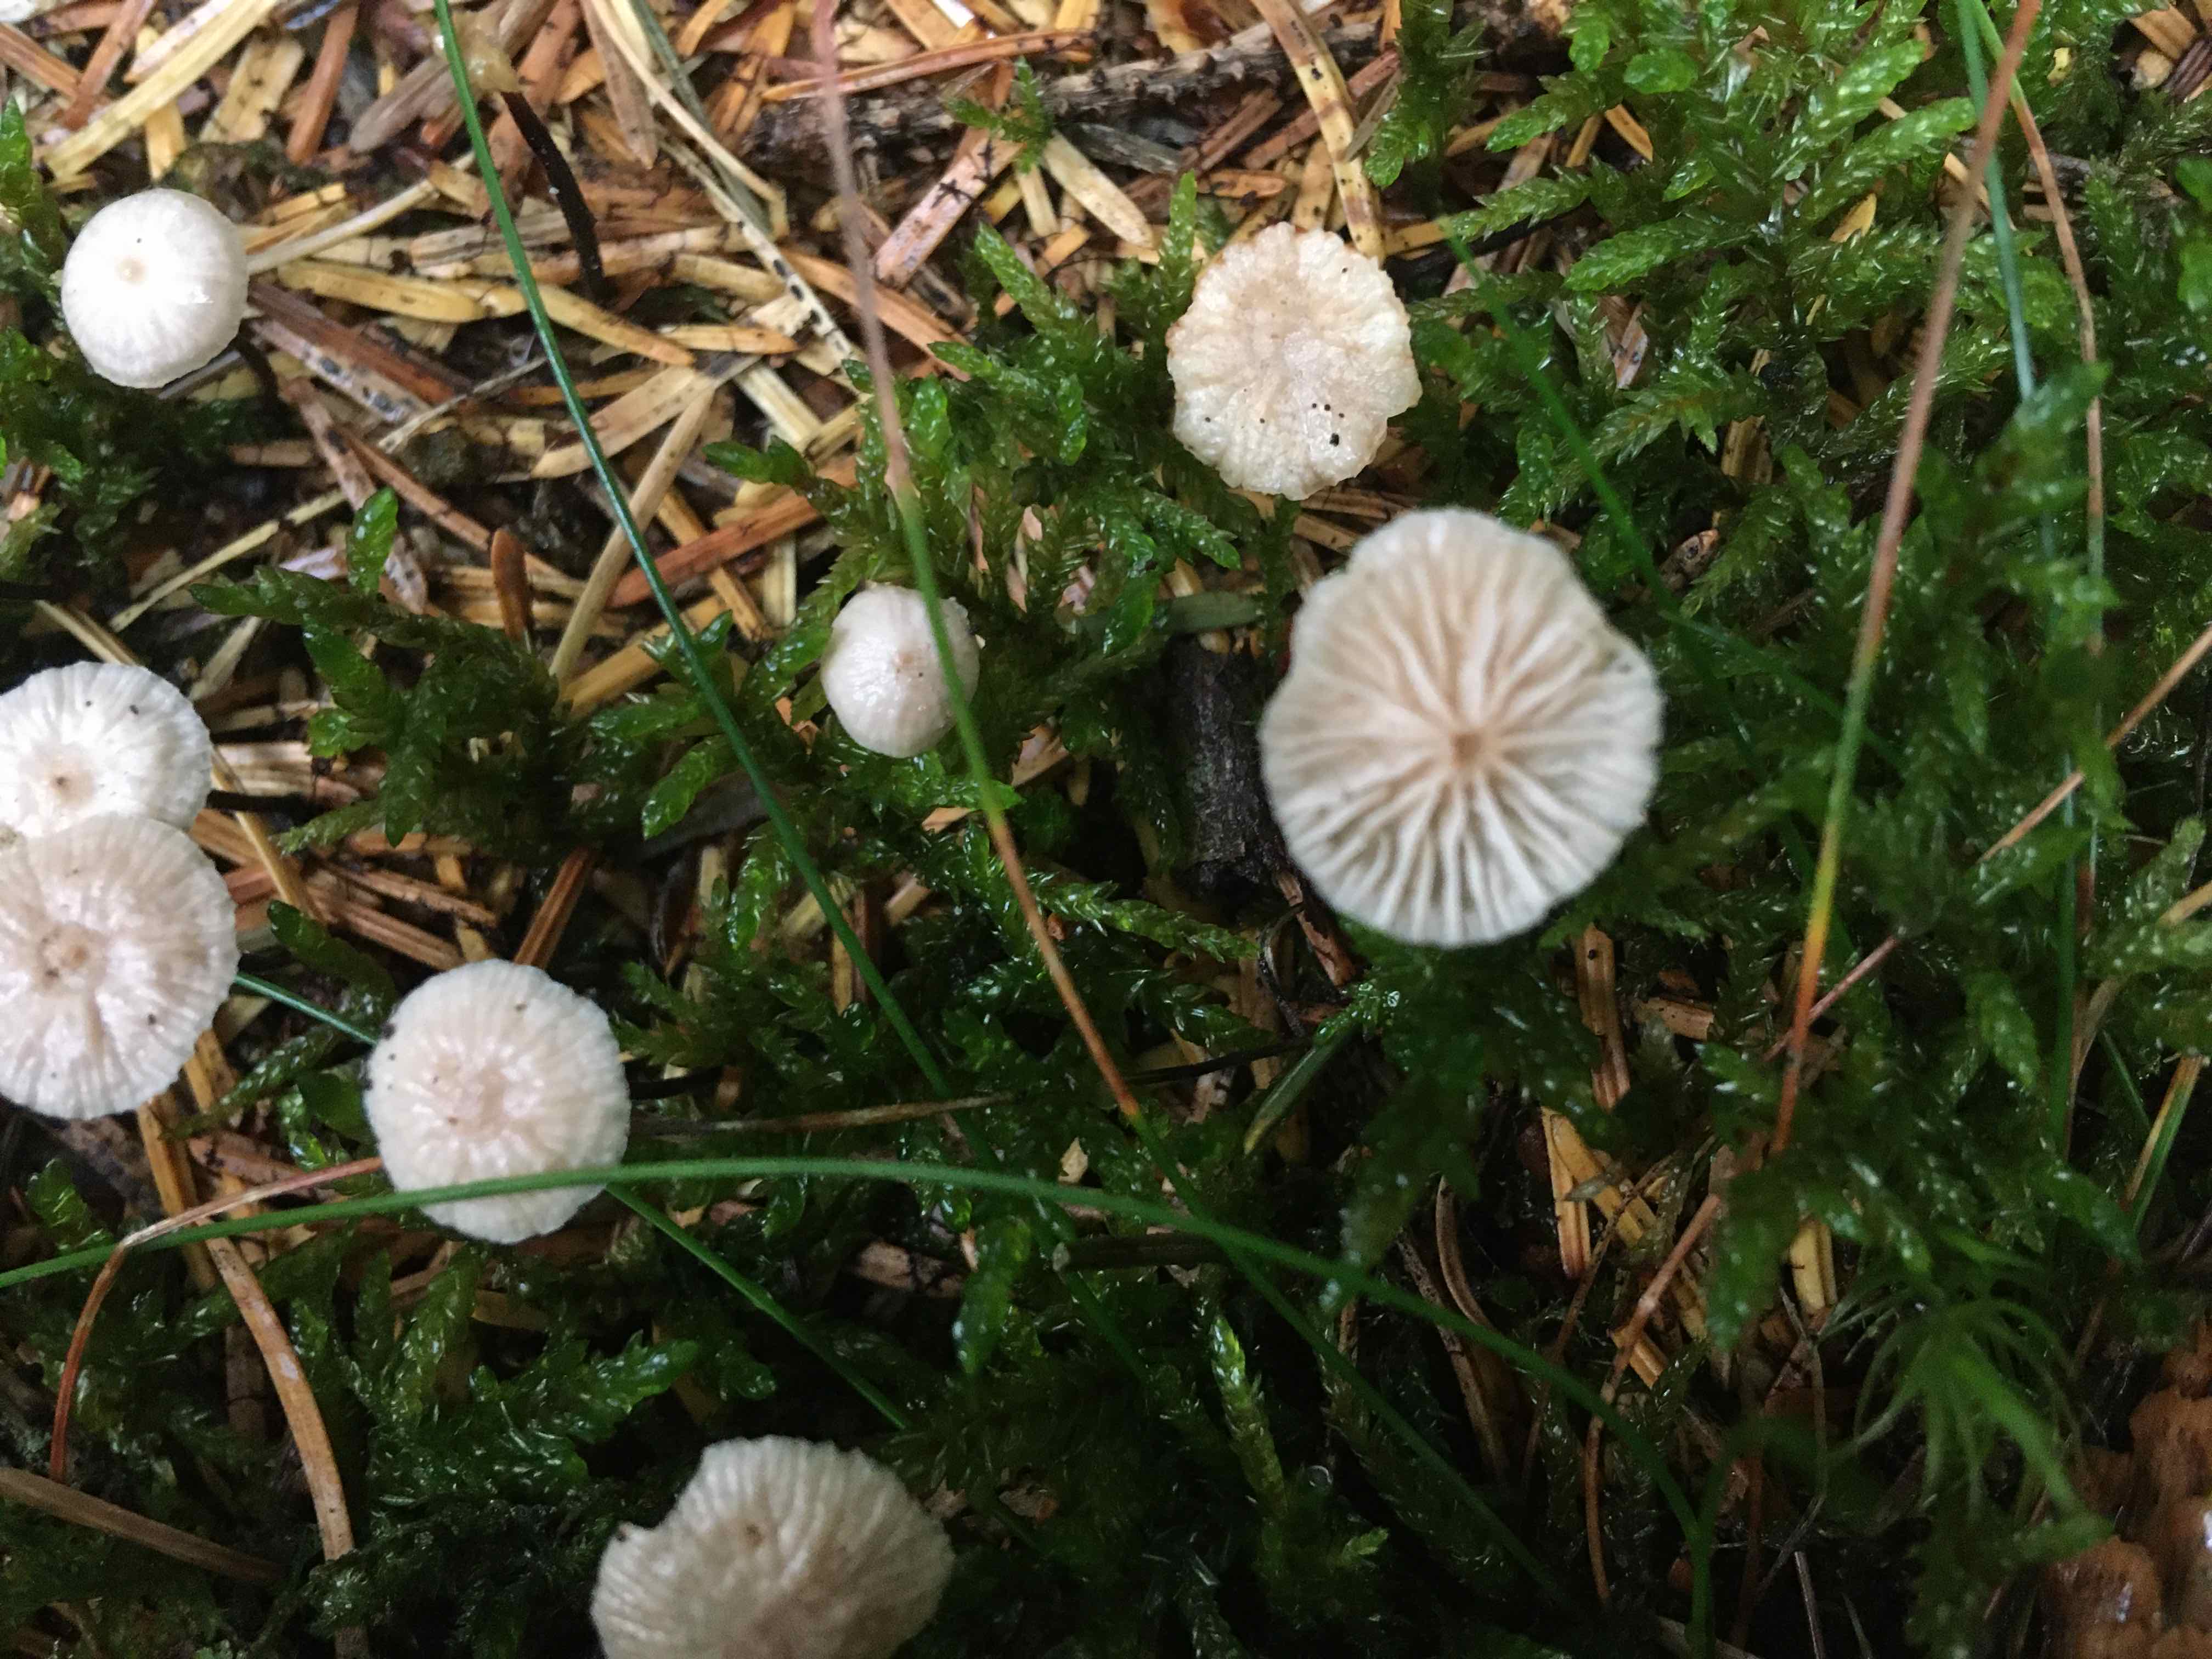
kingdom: Fungi
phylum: Basidiomycota
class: Agaricomycetes
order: Agaricales
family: Omphalotaceae
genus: Paragymnopus
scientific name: Paragymnopus perforans
